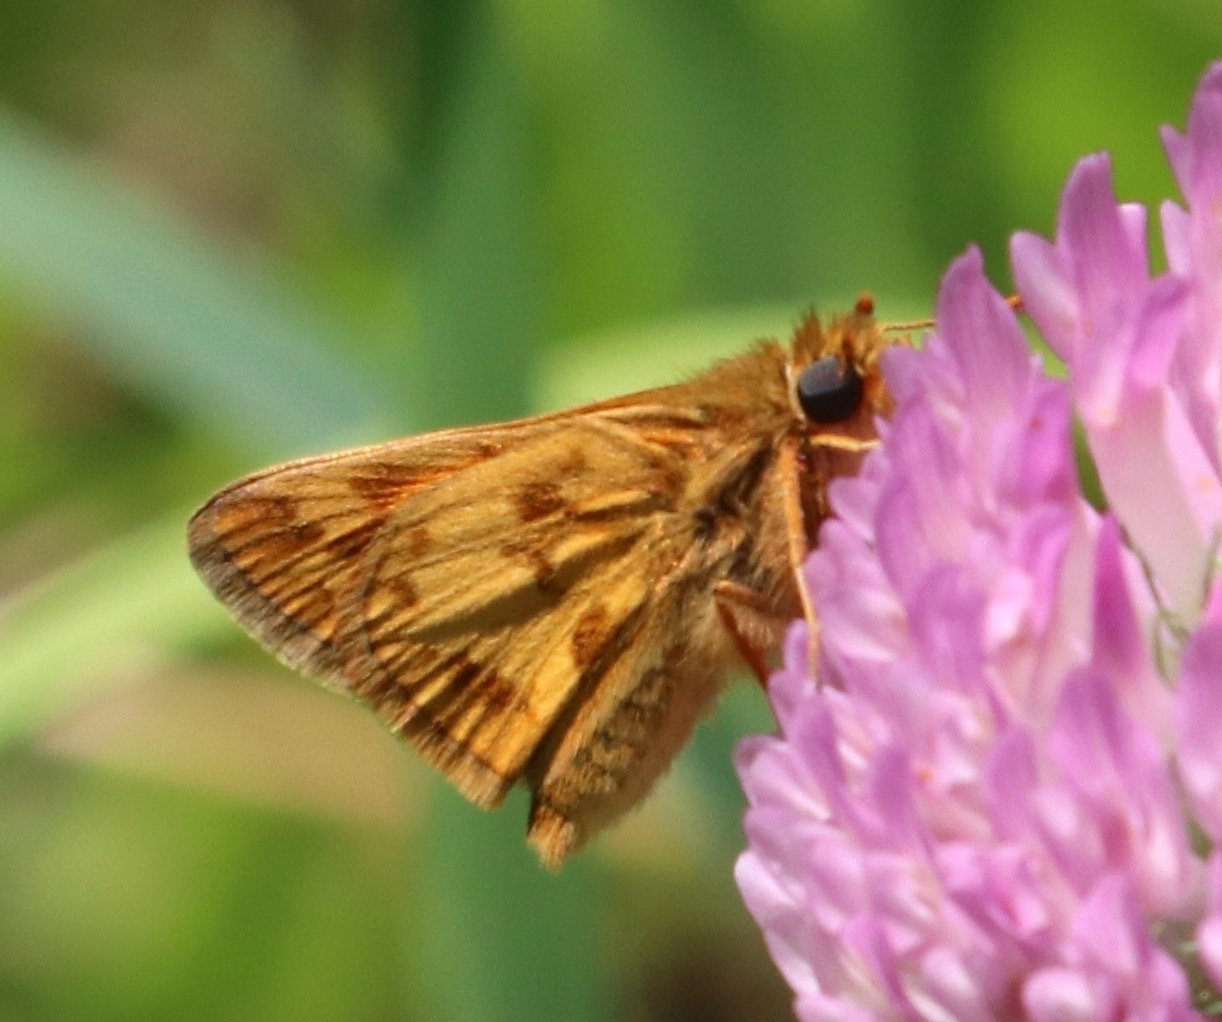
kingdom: Animalia
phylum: Arthropoda
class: Insecta
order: Lepidoptera
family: Hesperiidae
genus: Polites
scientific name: Polites coras
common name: Peck's Skipper
